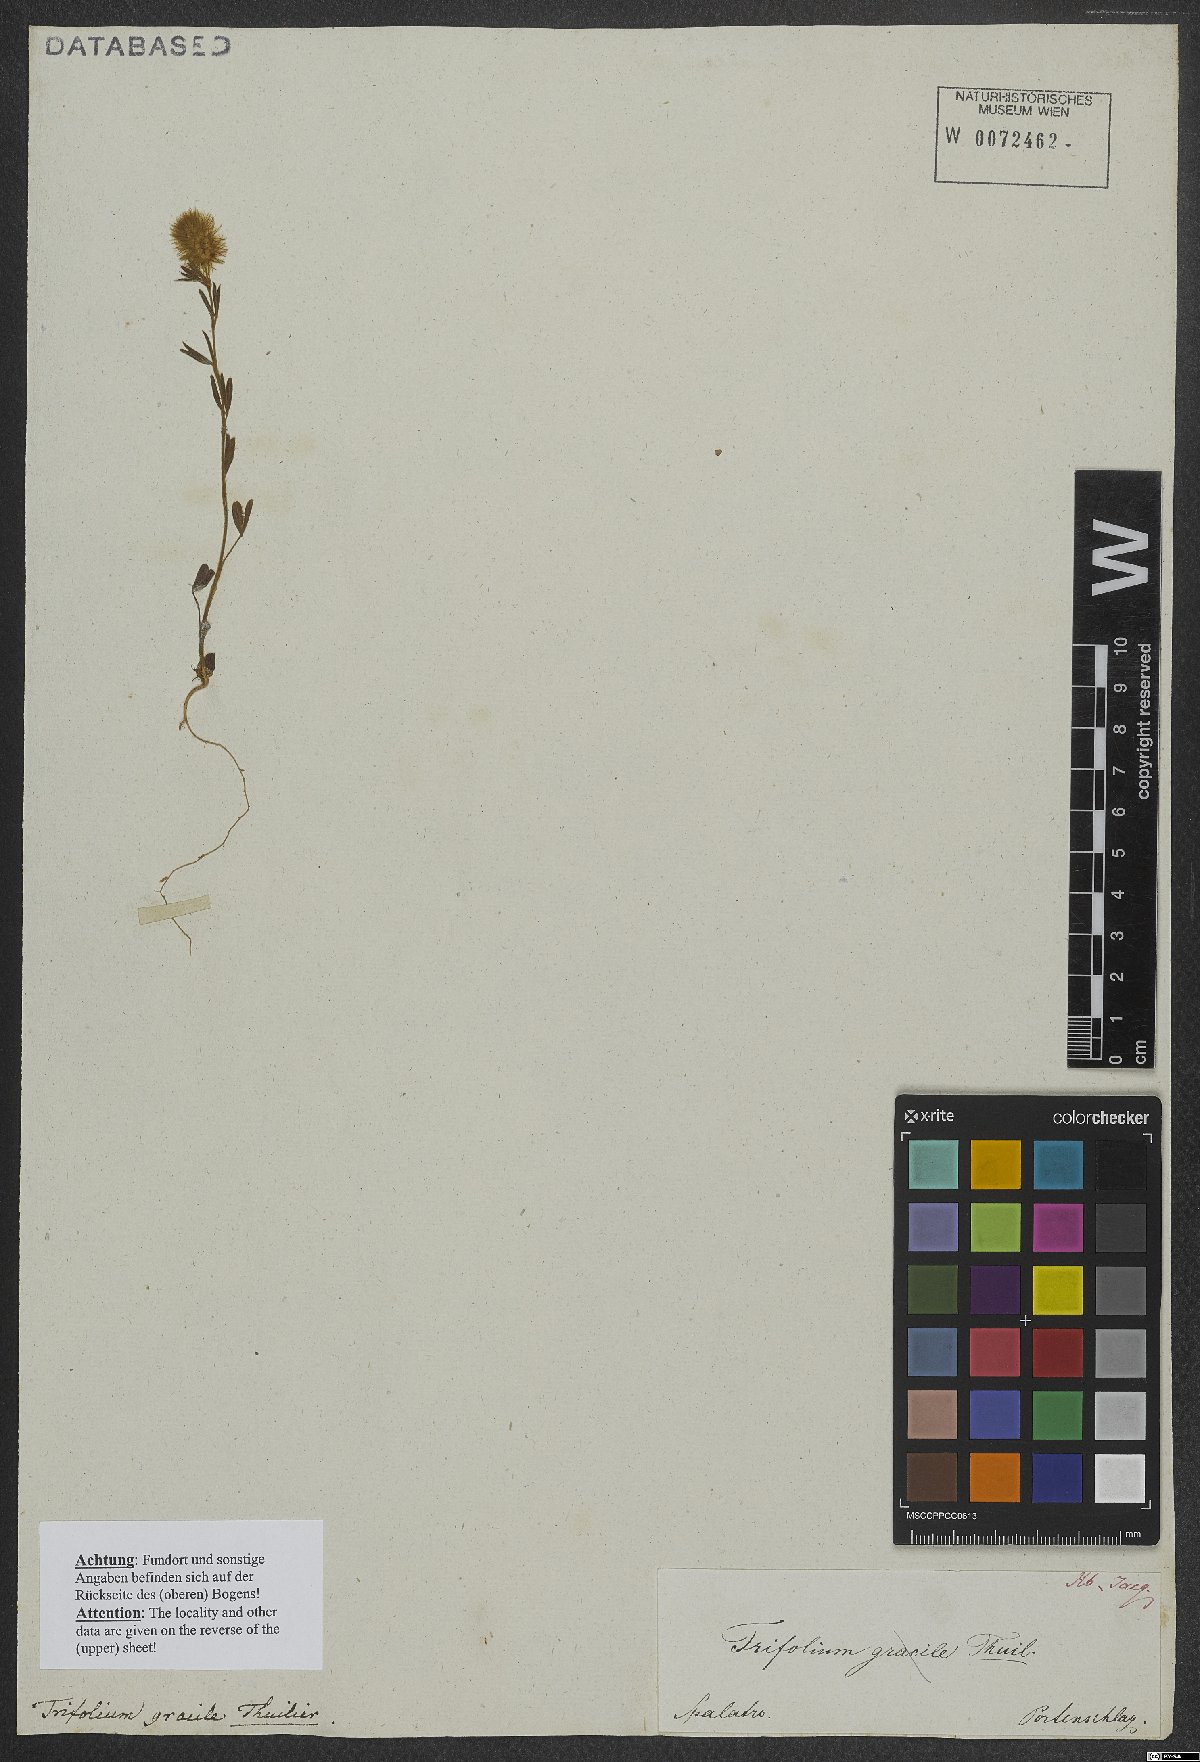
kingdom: Plantae
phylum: Tracheophyta
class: Magnoliopsida
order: Fabales
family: Fabaceae
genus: Trifolium
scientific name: Trifolium arvense
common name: Hare's-foot clover
